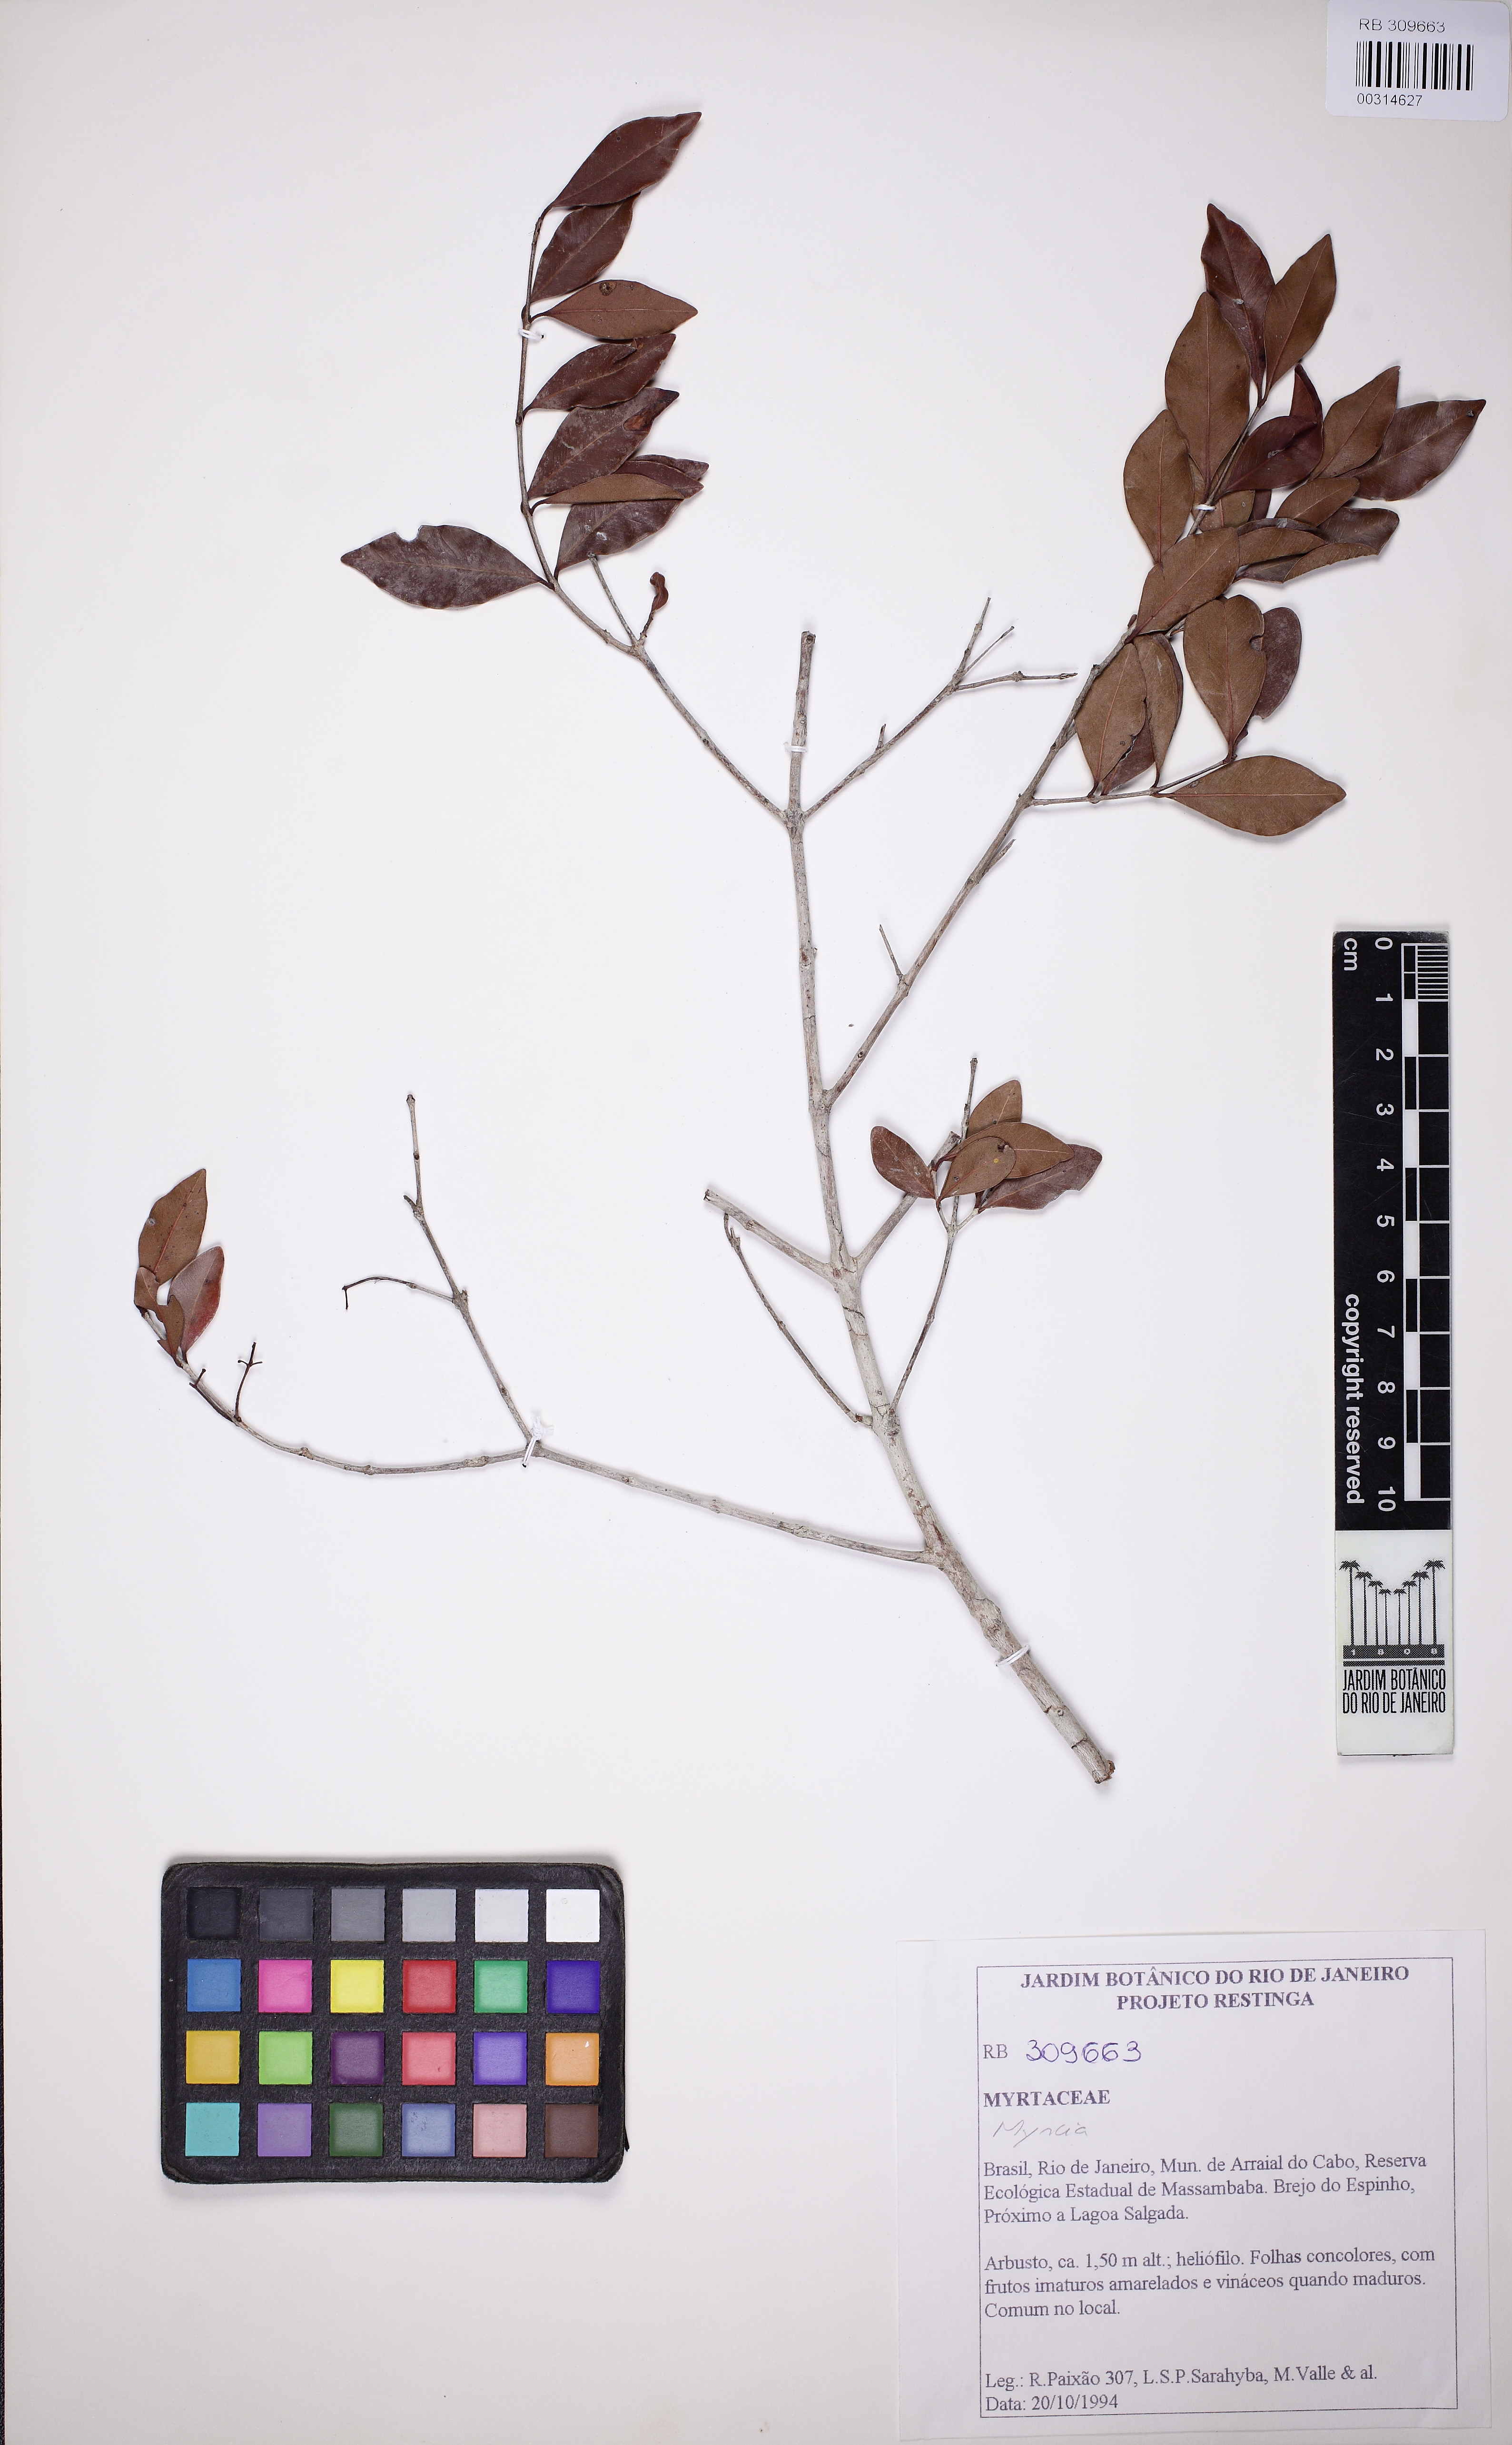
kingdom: Plantae
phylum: Tracheophyta
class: Magnoliopsida
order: Myrtales
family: Myrtaceae
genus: Myrcia
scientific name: Myrcia
